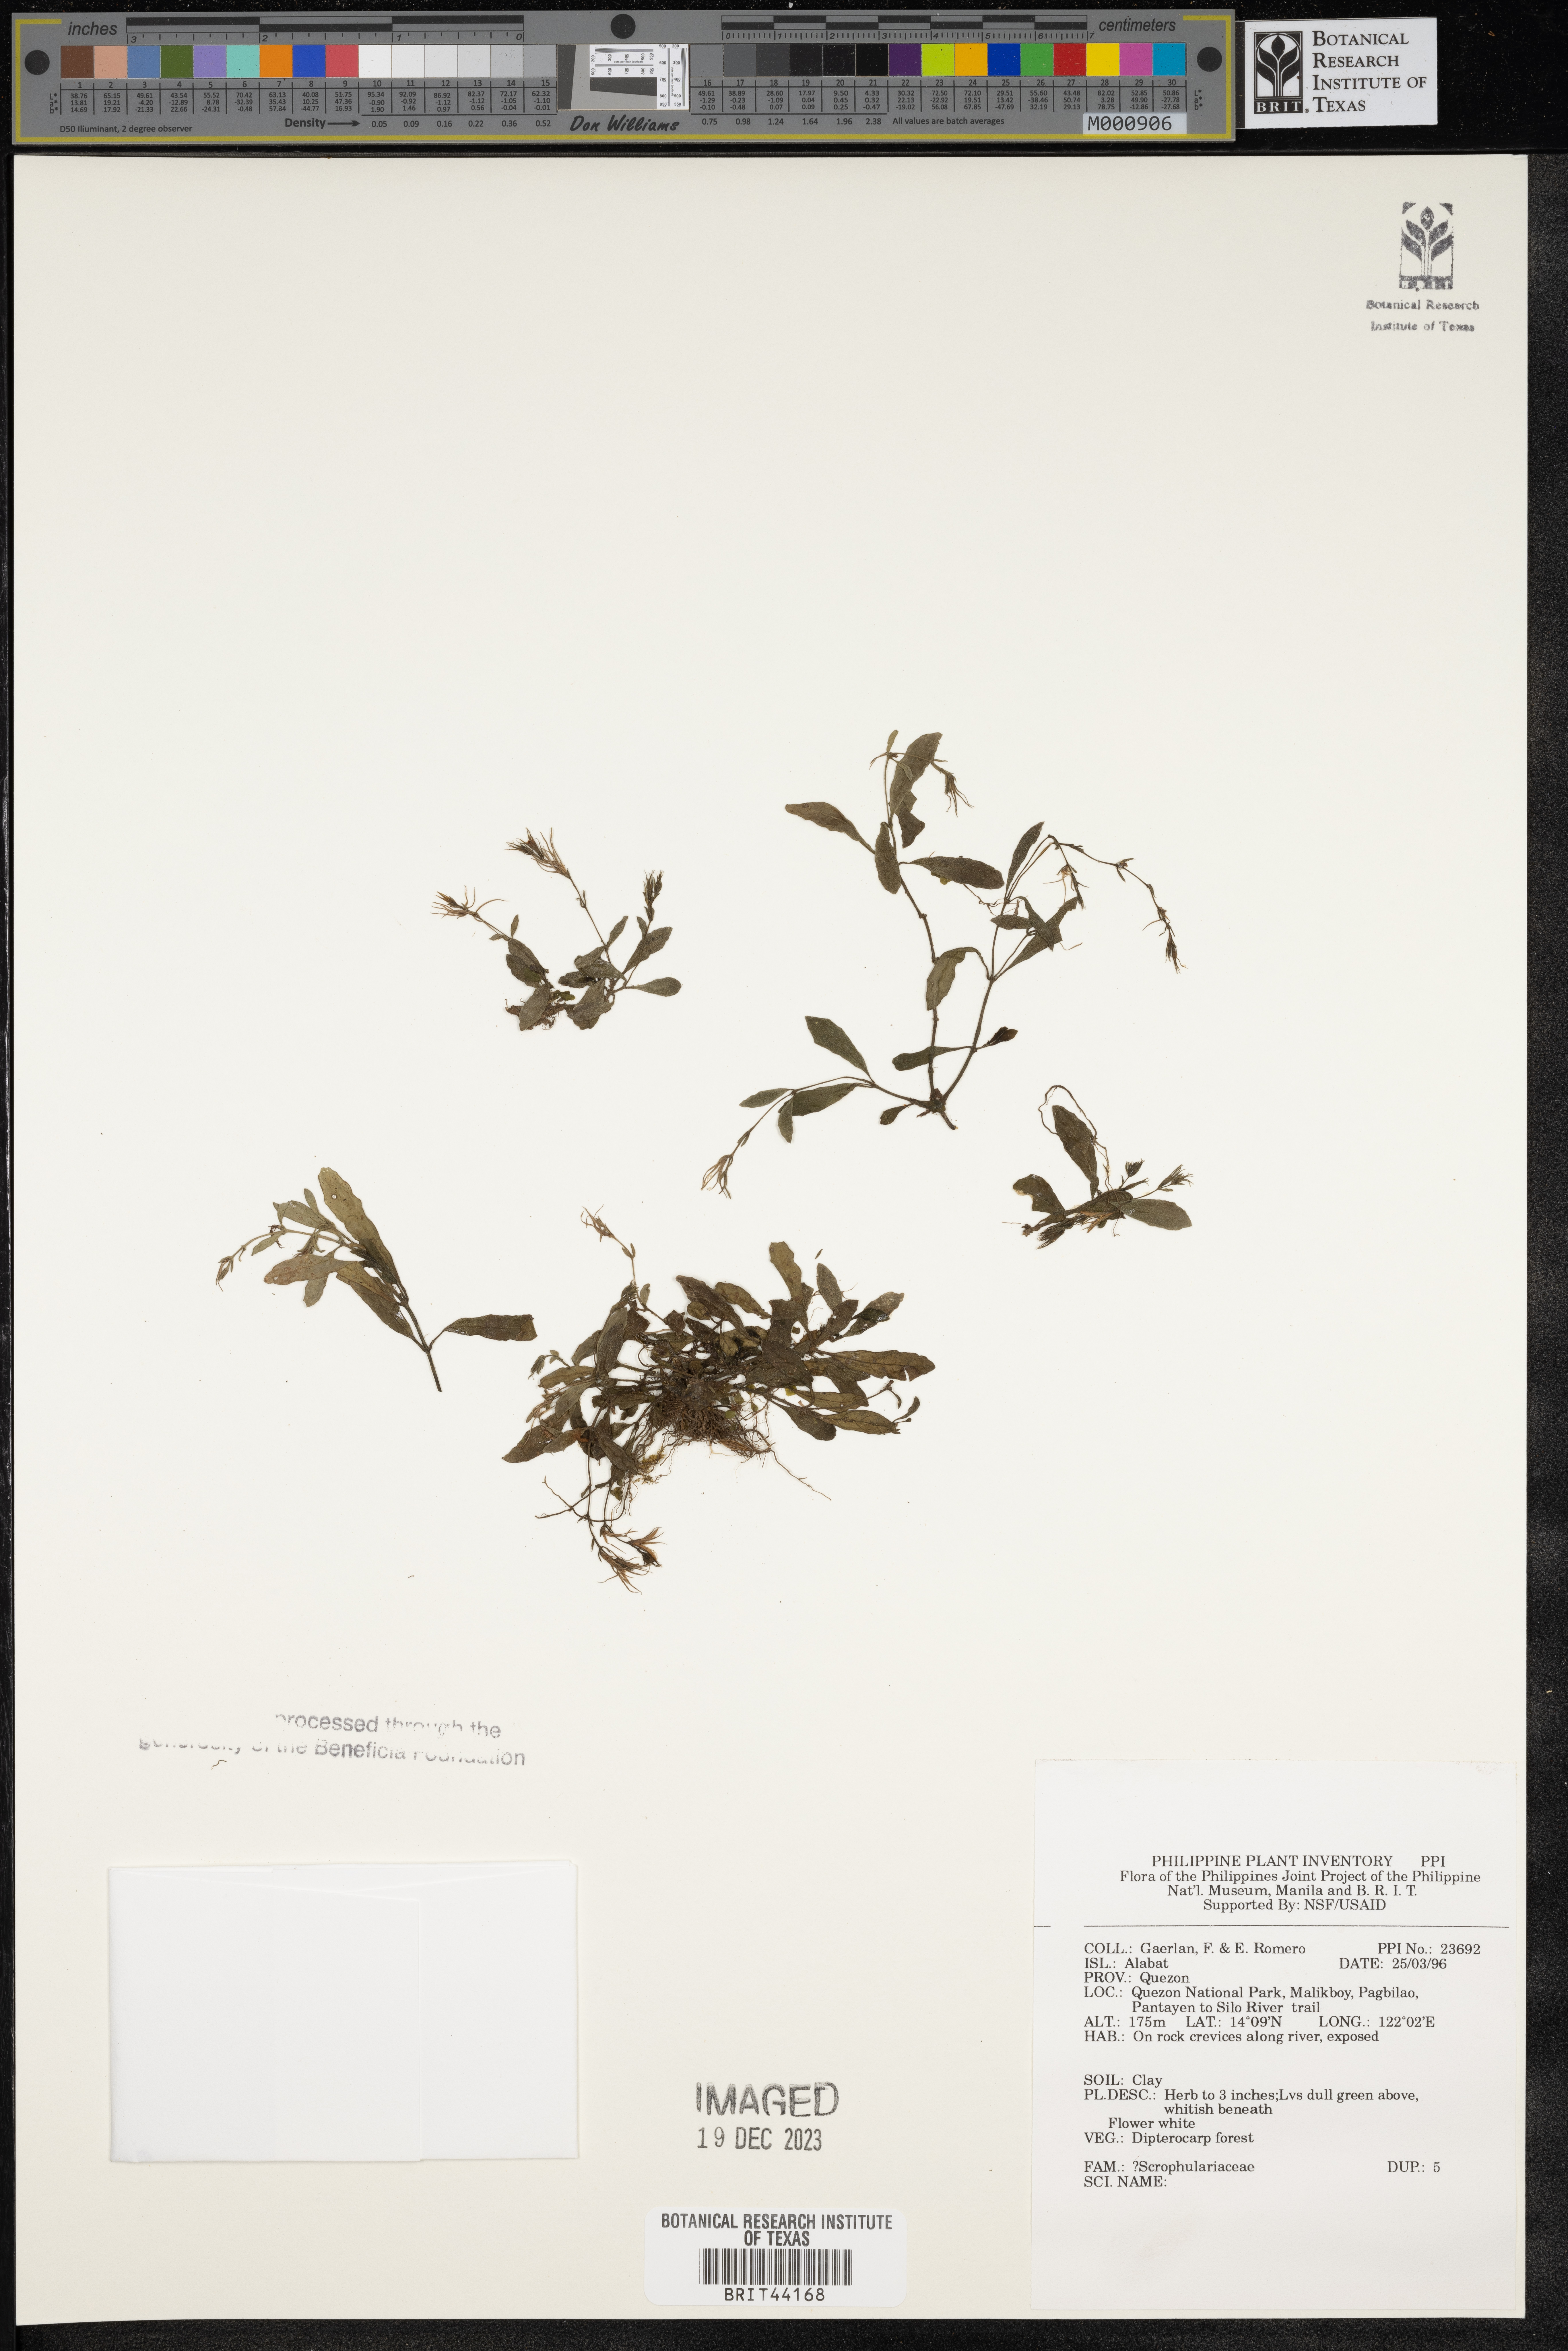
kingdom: Plantae
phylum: Tracheophyta
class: Magnoliopsida
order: Lamiales
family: Scrophulariaceae
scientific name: Scrophulariaceae
